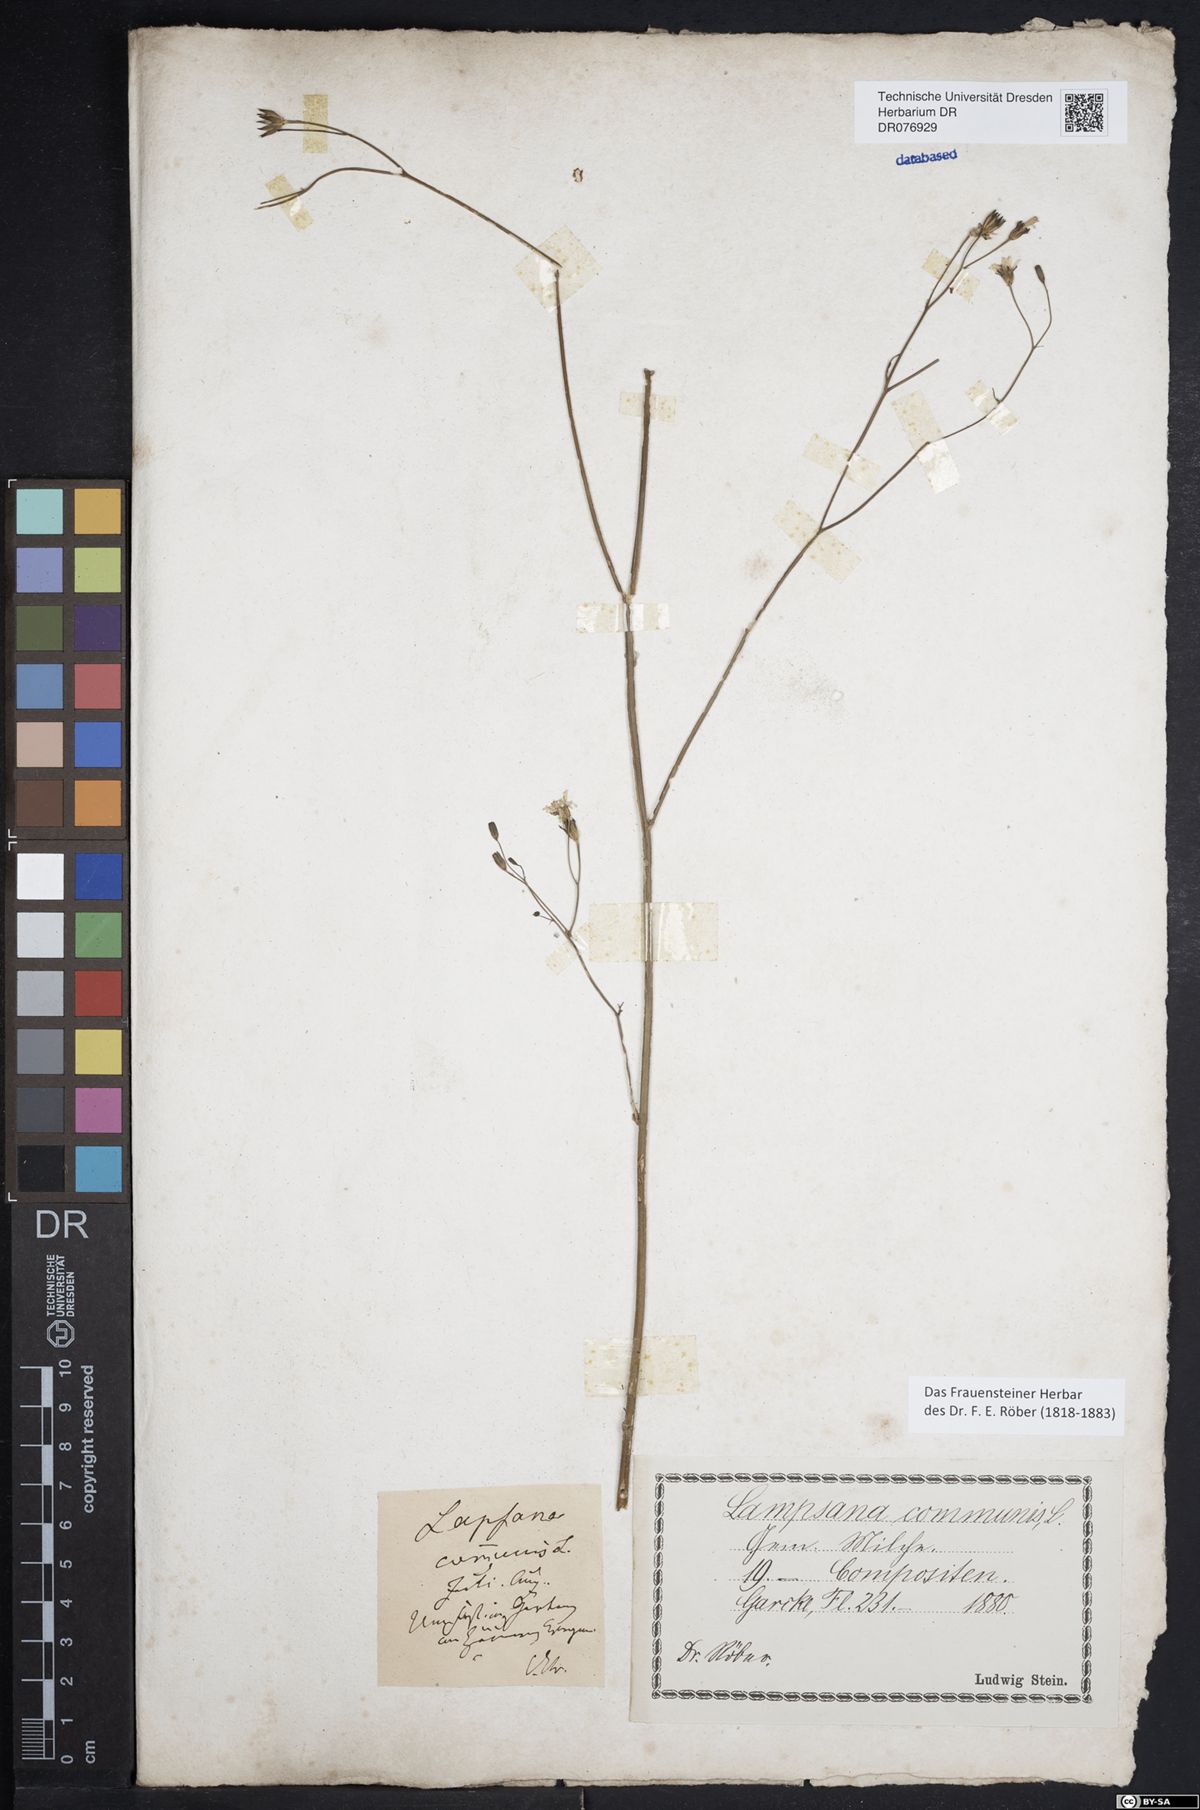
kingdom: Plantae
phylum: Tracheophyta
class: Magnoliopsida
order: Asterales
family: Asteraceae
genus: Lapsana
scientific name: Lapsana communis
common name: Nipplewort
